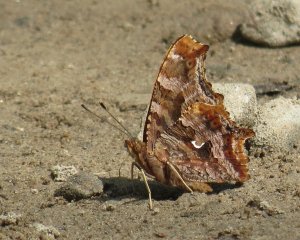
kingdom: Animalia
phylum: Arthropoda
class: Insecta
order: Lepidoptera
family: Nymphalidae
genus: Polygonia
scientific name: Polygonia comma
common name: Eastern Comma
